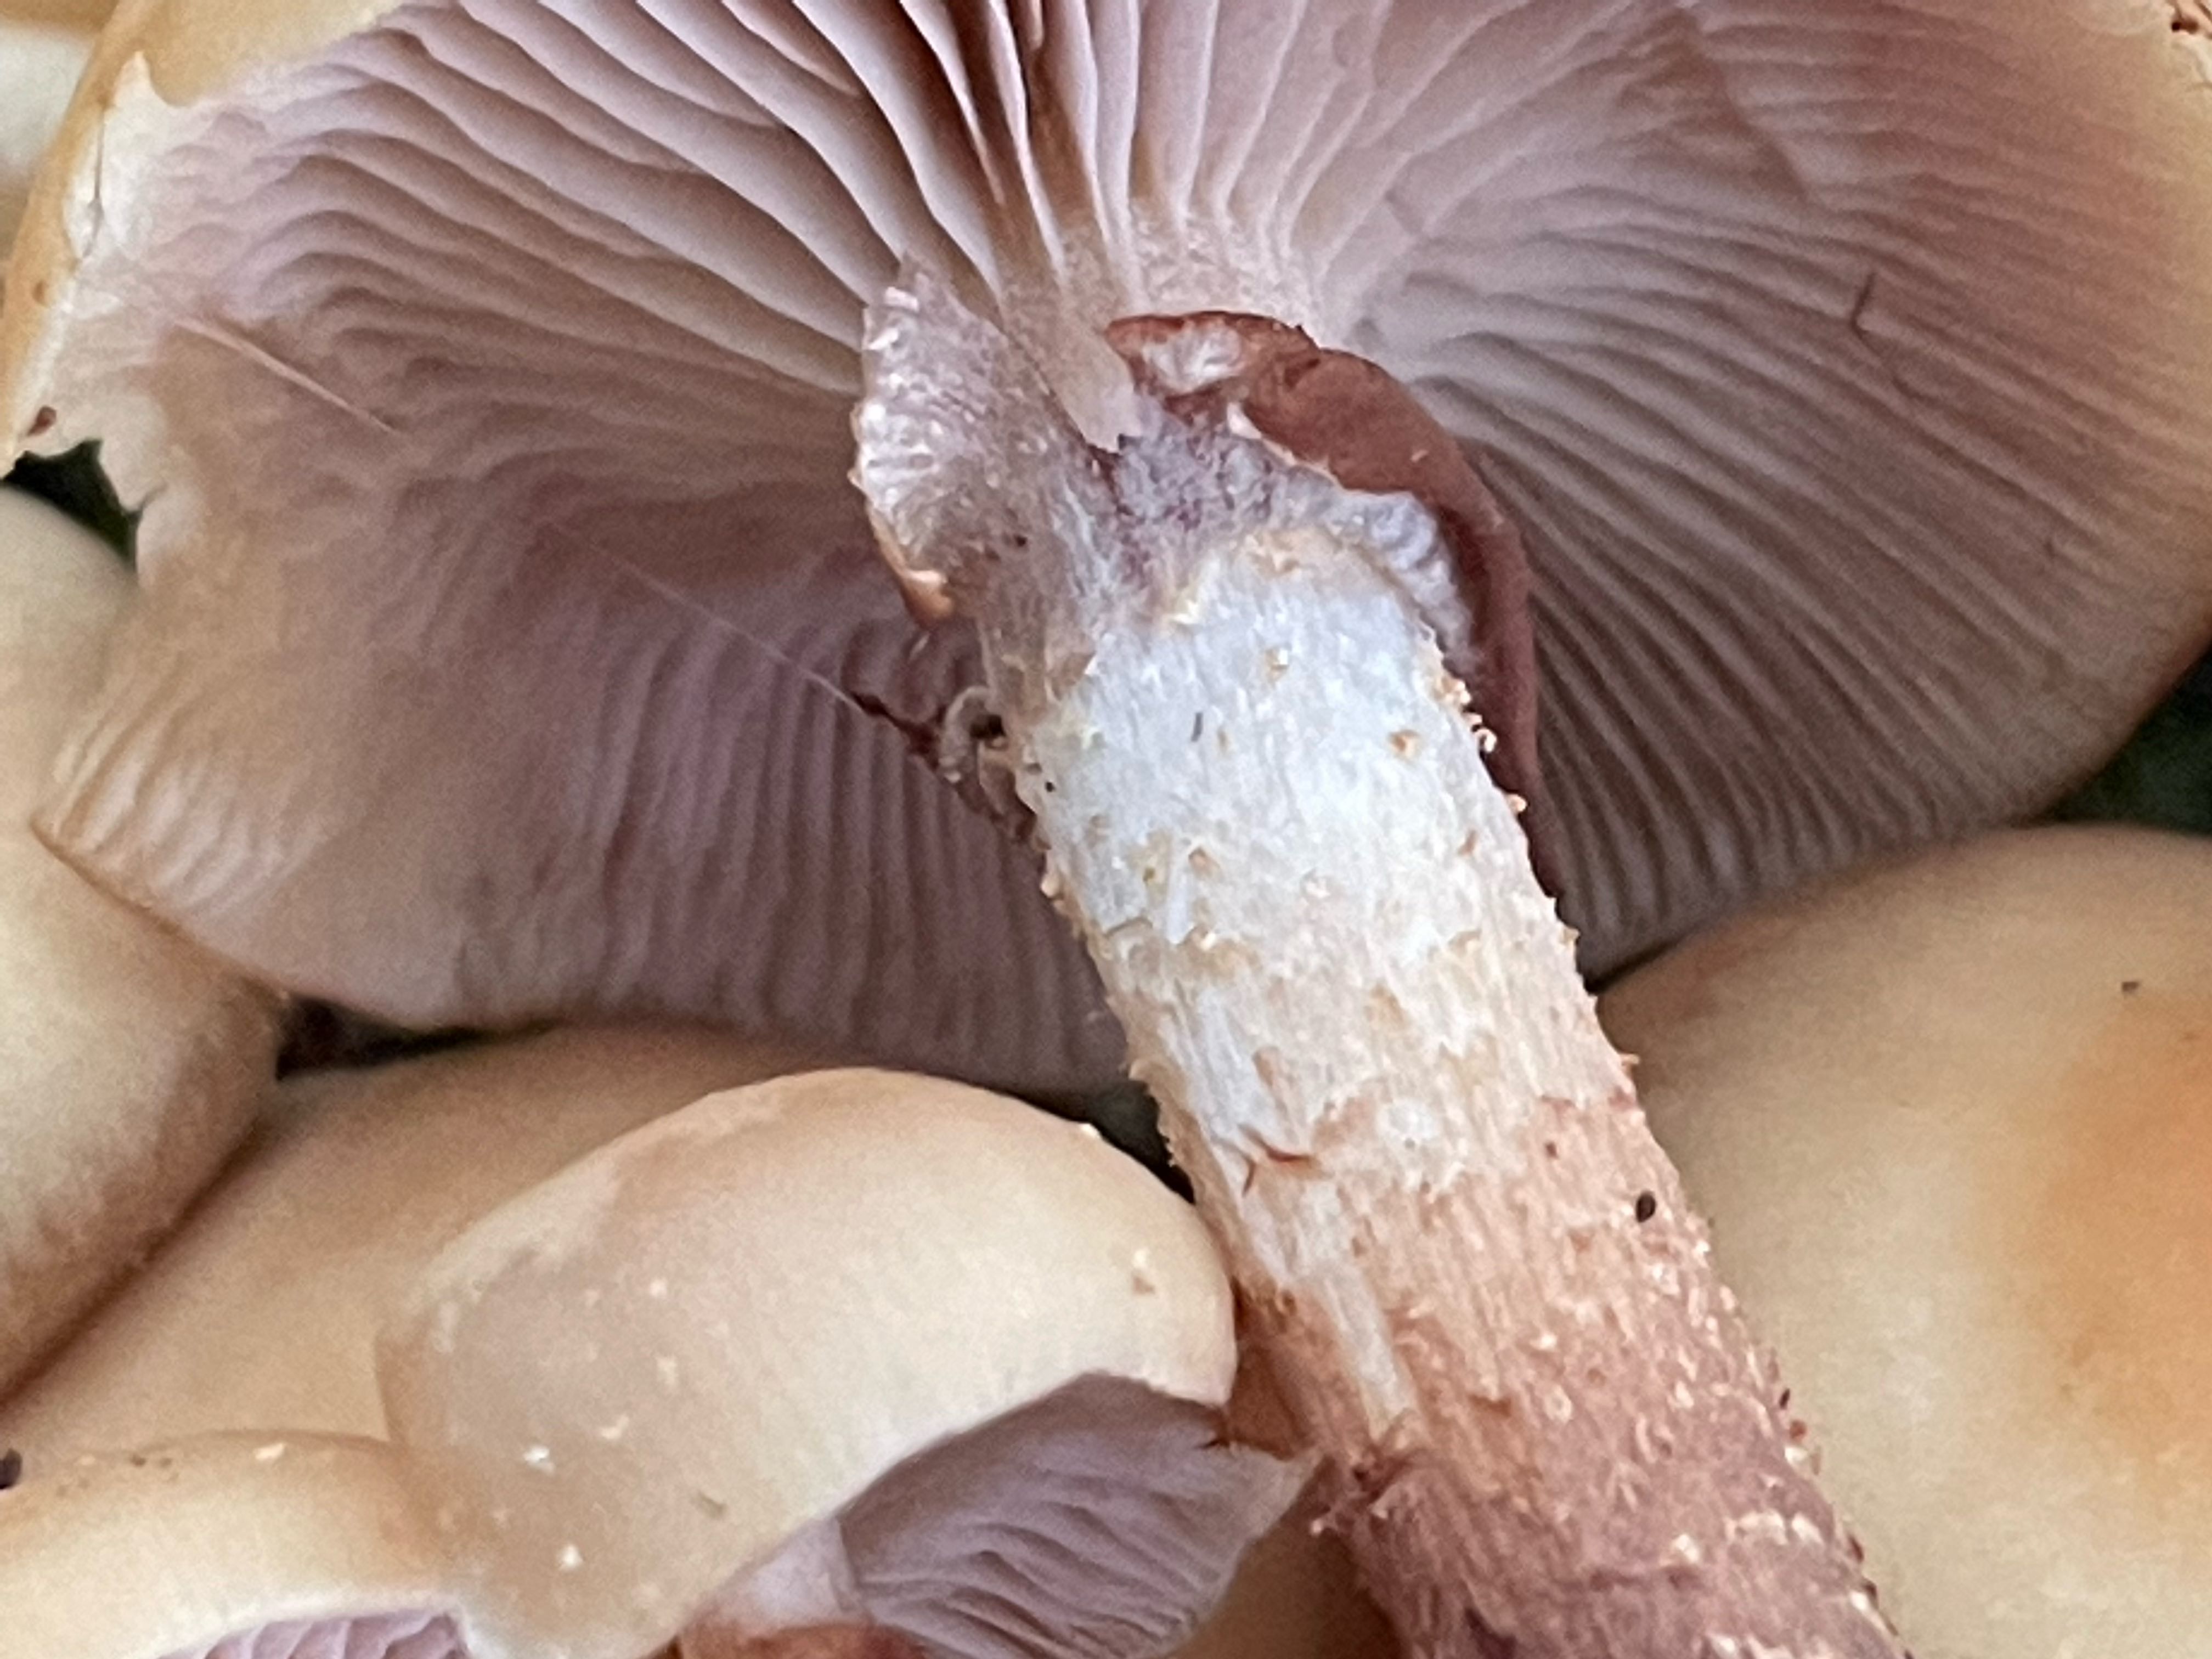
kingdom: Fungi
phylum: Basidiomycota
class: Agaricomycetes
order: Agaricales
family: Strophariaceae
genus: Kuehneromyces
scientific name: Kuehneromyces mutabilis
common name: foranderlig skælhat
